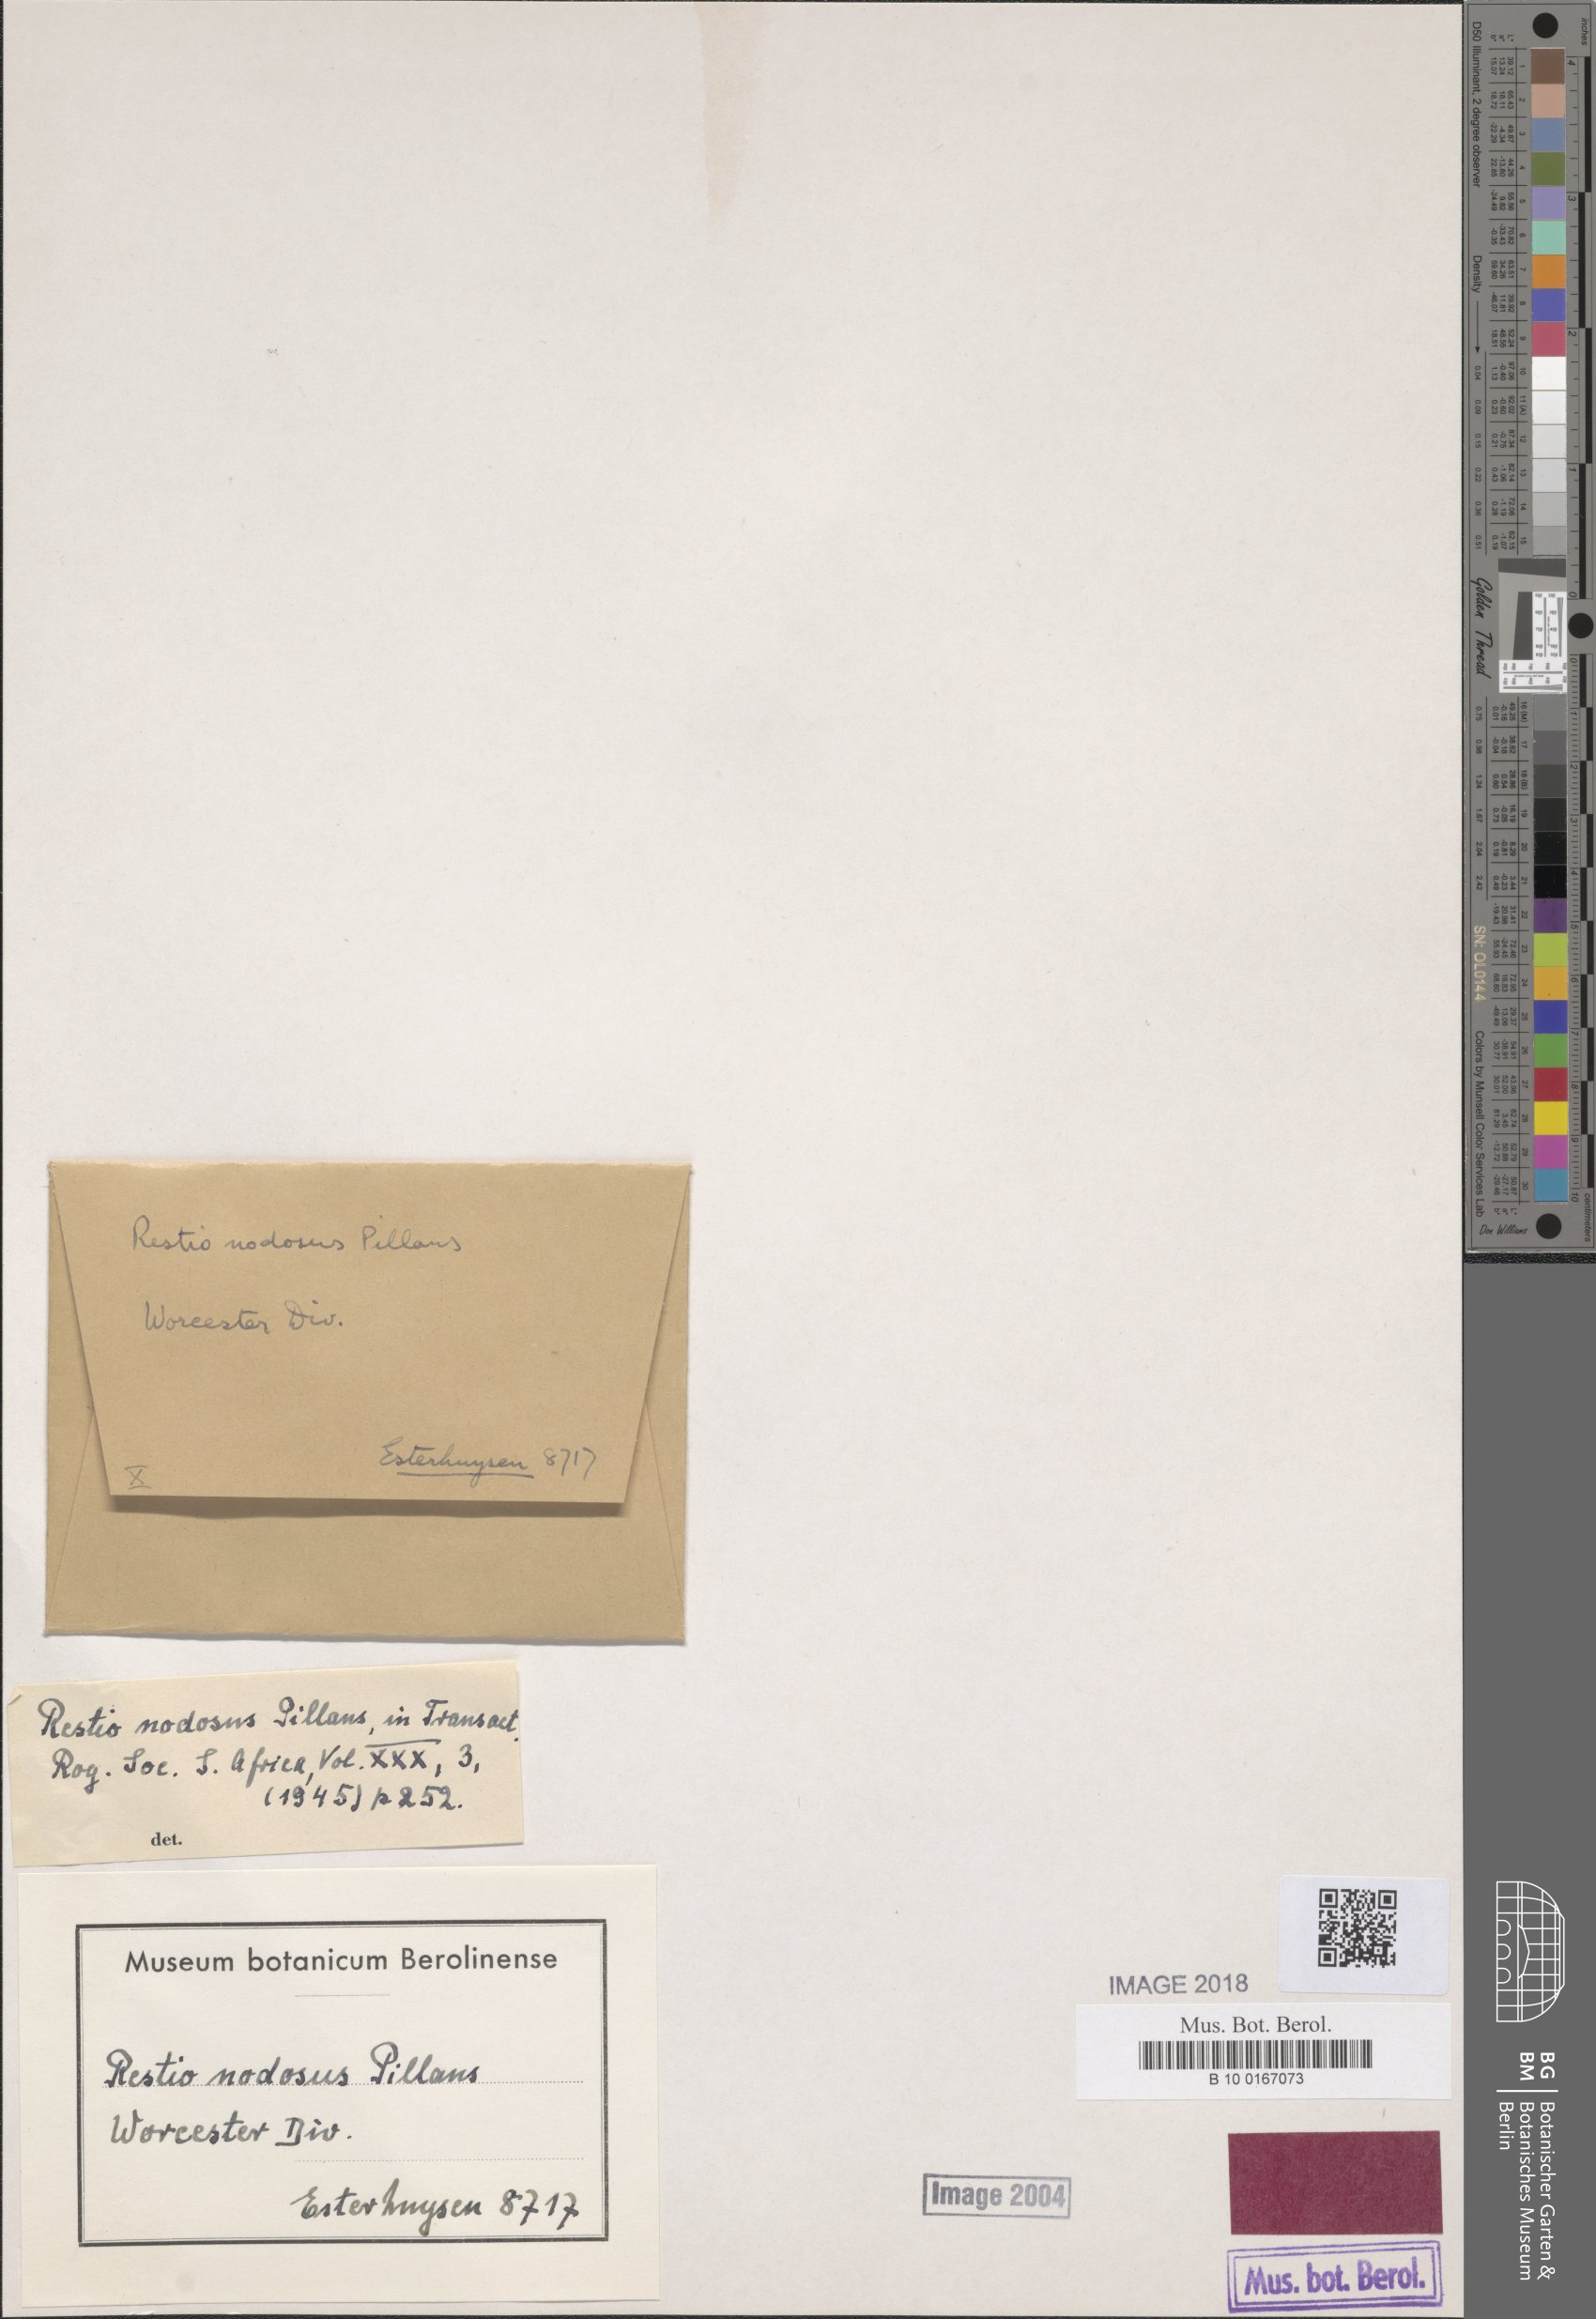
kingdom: Plantae
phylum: Tracheophyta
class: Liliopsida
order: Poales
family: Restionaceae
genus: Restio
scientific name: Restio nodosus
